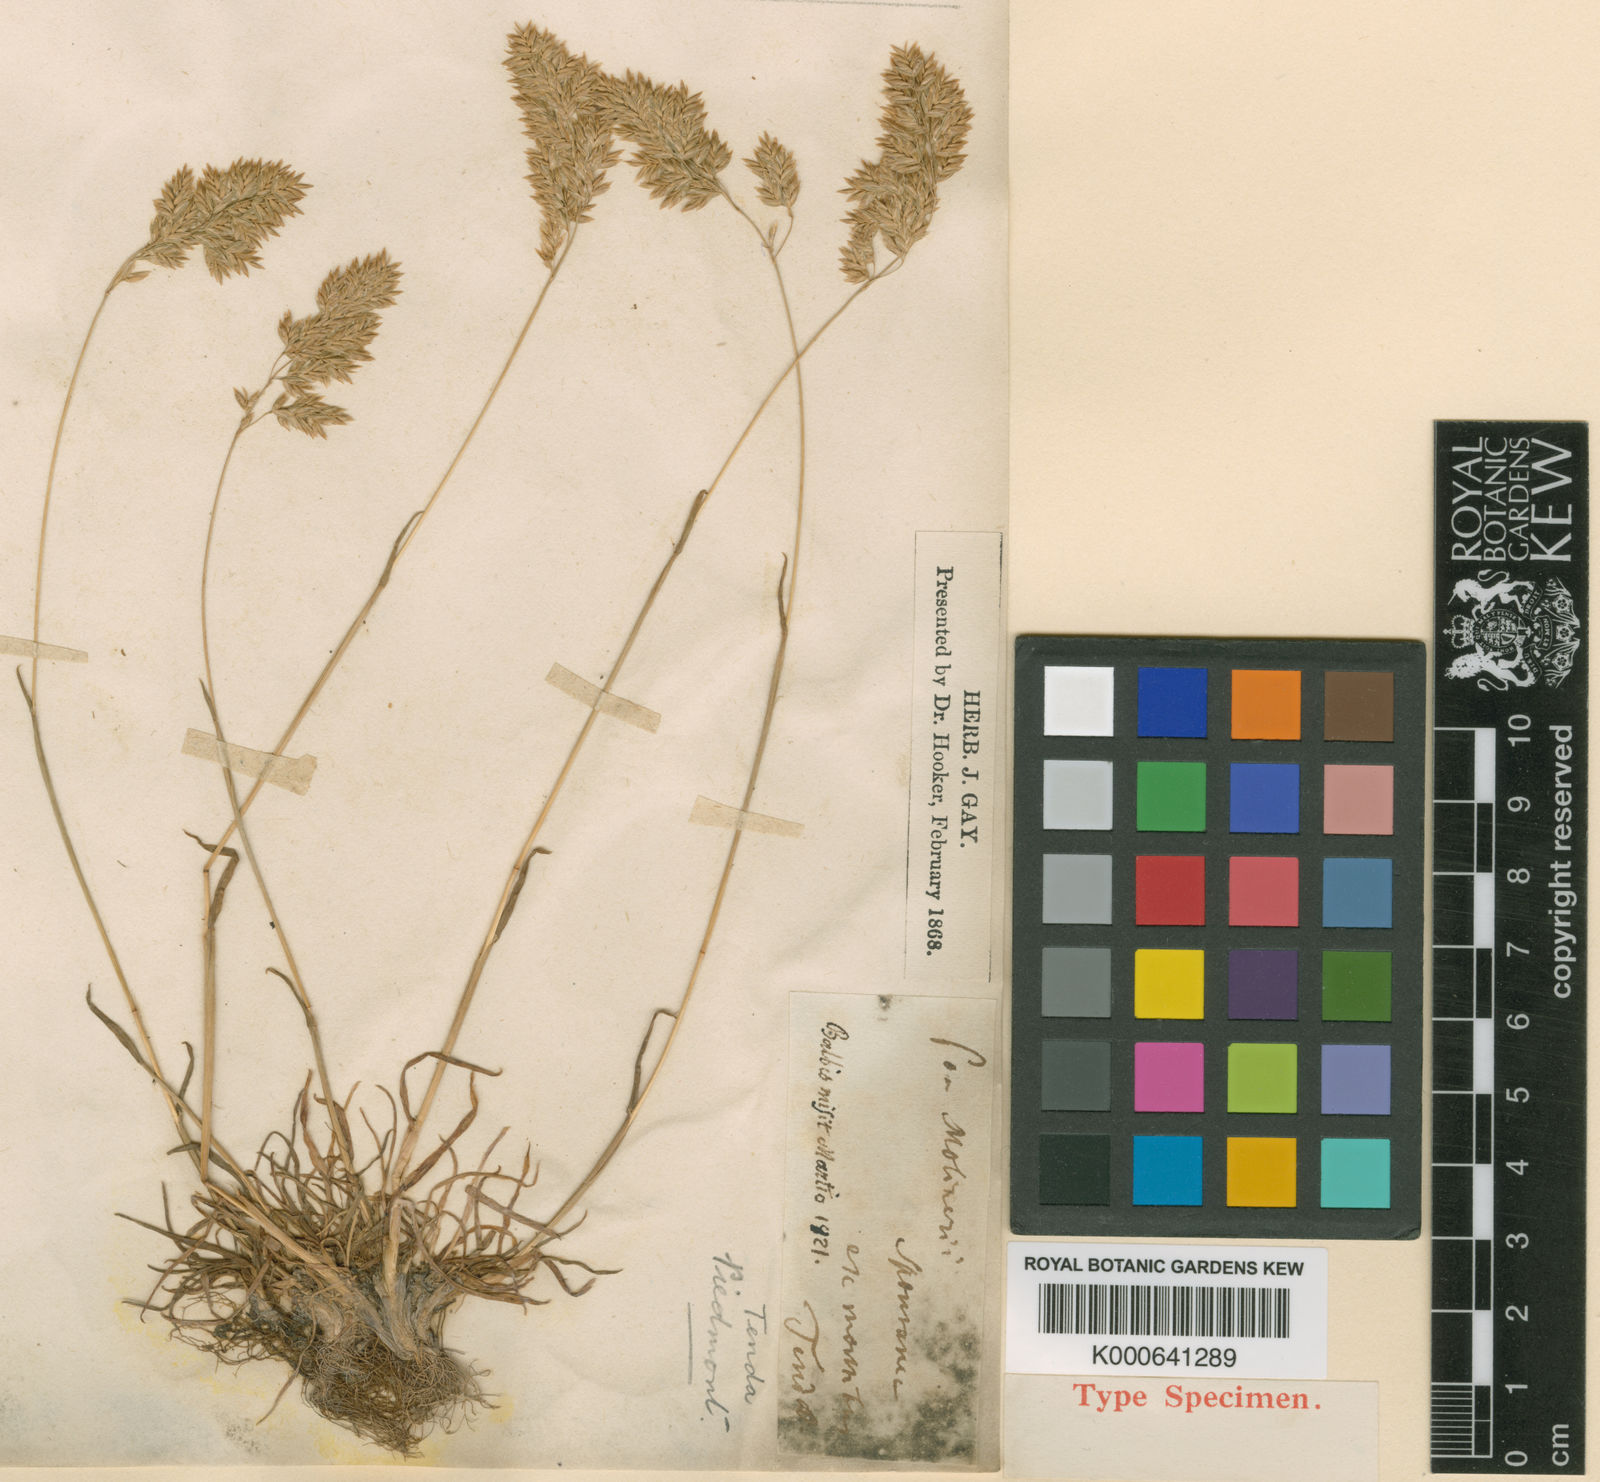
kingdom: Plantae
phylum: Tracheophyta
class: Liliopsida
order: Poales
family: Poaceae
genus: Poa
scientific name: Poa alpina
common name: Alpine bluegrass
